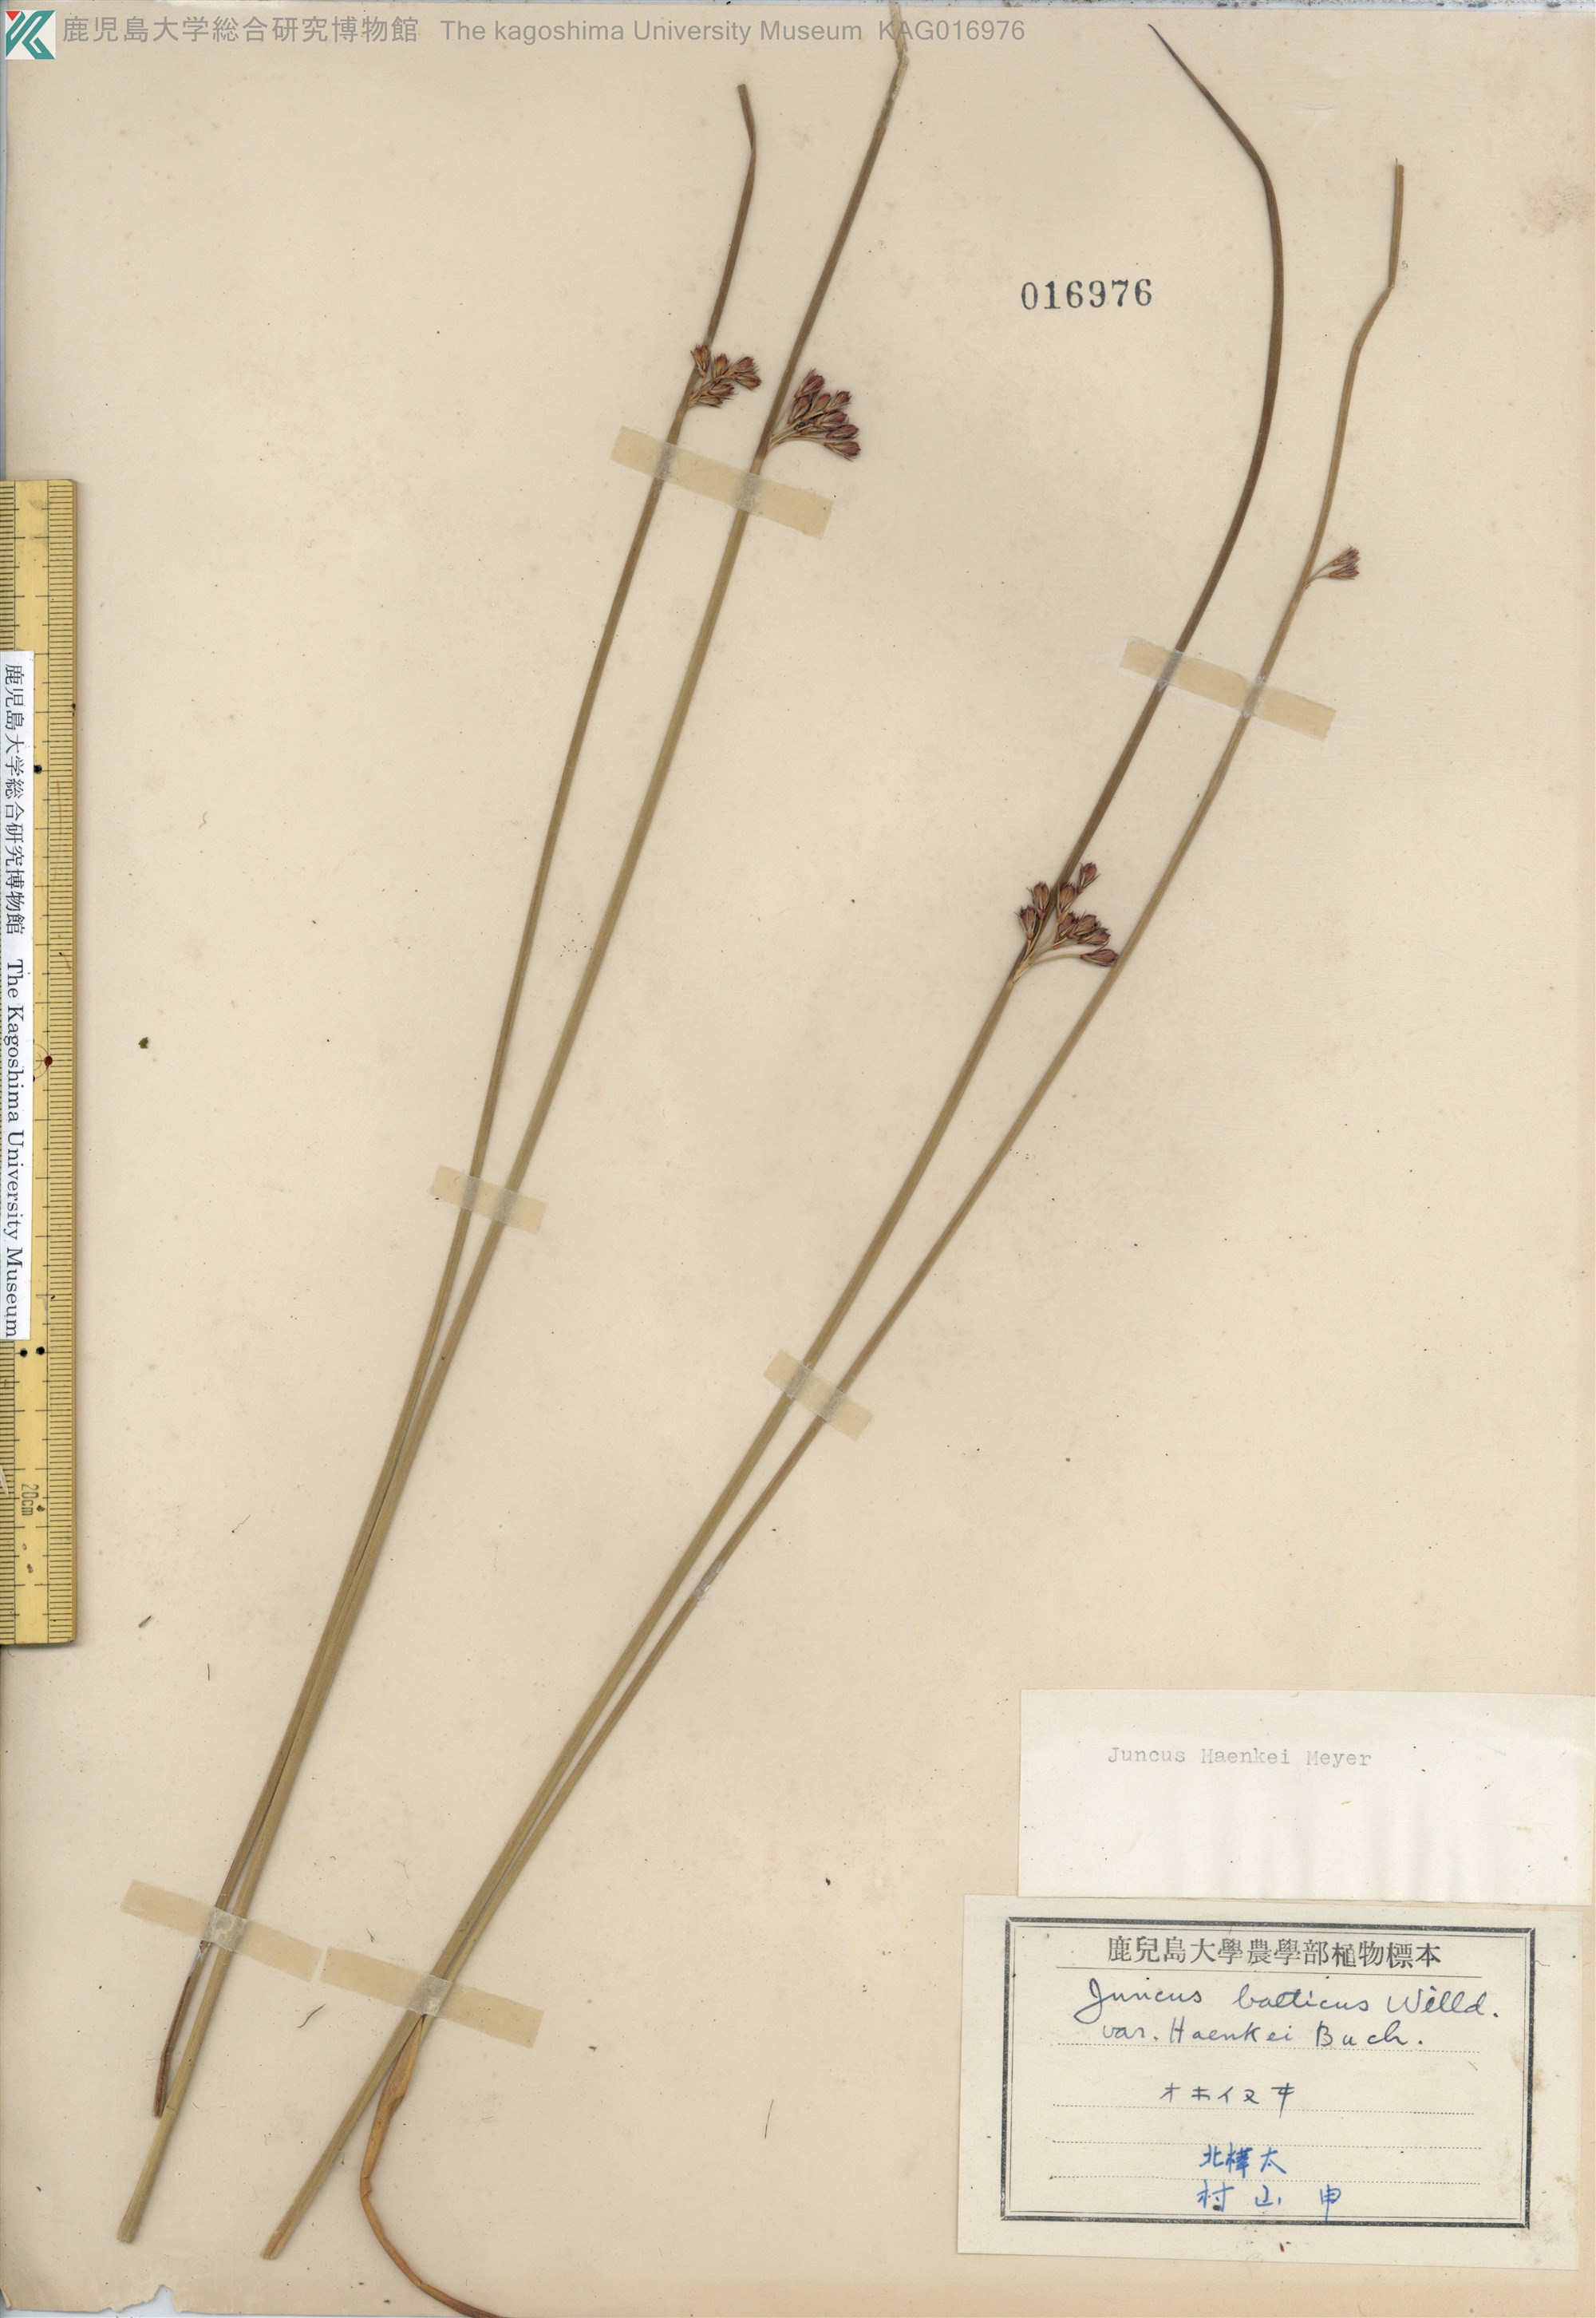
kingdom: Plantae
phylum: Tracheophyta
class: Liliopsida
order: Poales
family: Juncaceae
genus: Juncus
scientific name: Juncus haenkei
